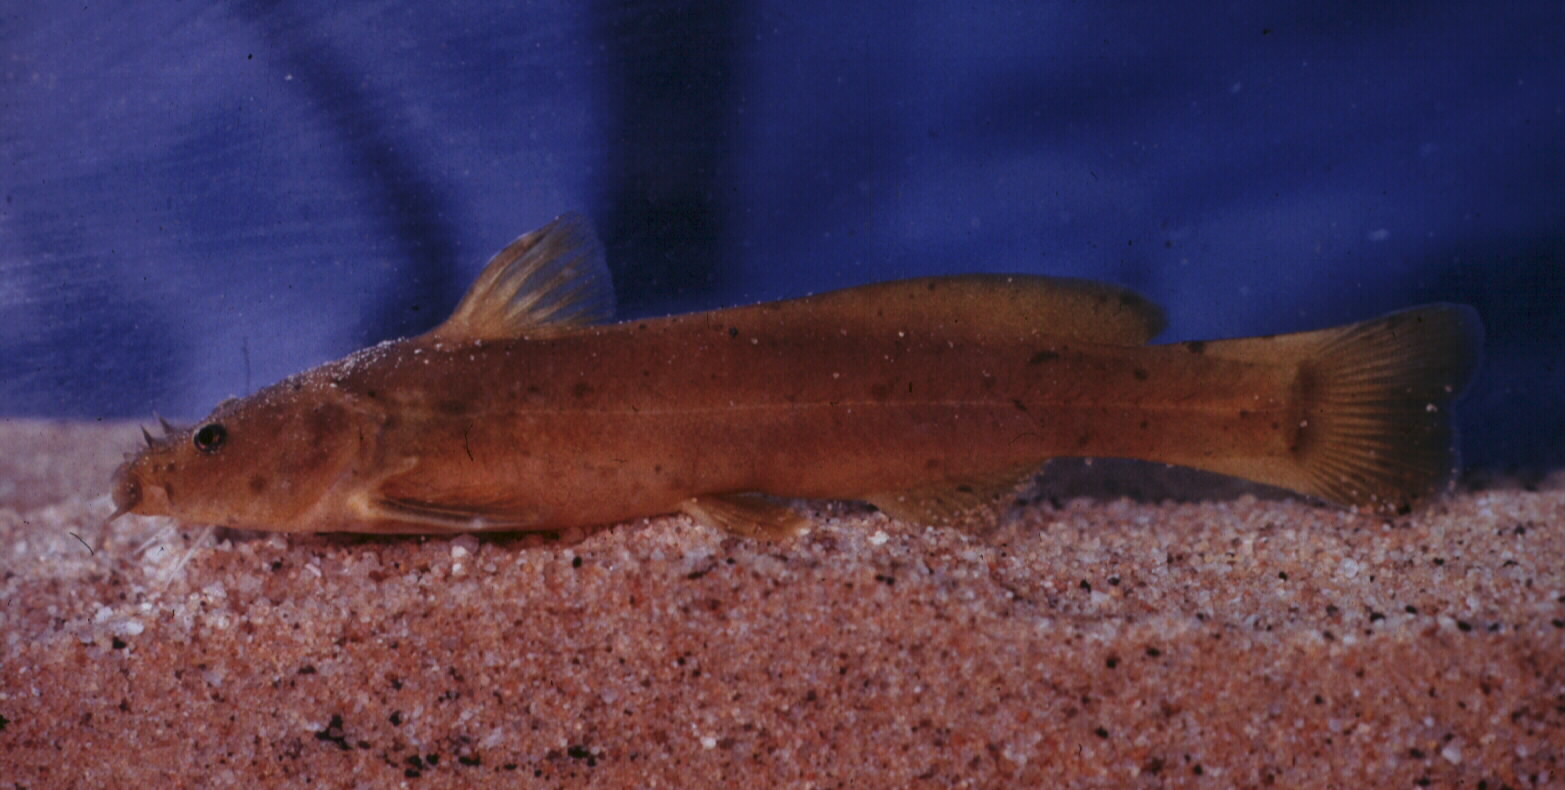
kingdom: Animalia
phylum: Chordata
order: Siluriformes
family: Austroglanididae
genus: Austroglanis
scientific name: Austroglanis barnardi
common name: Barnard's rock-catfish
